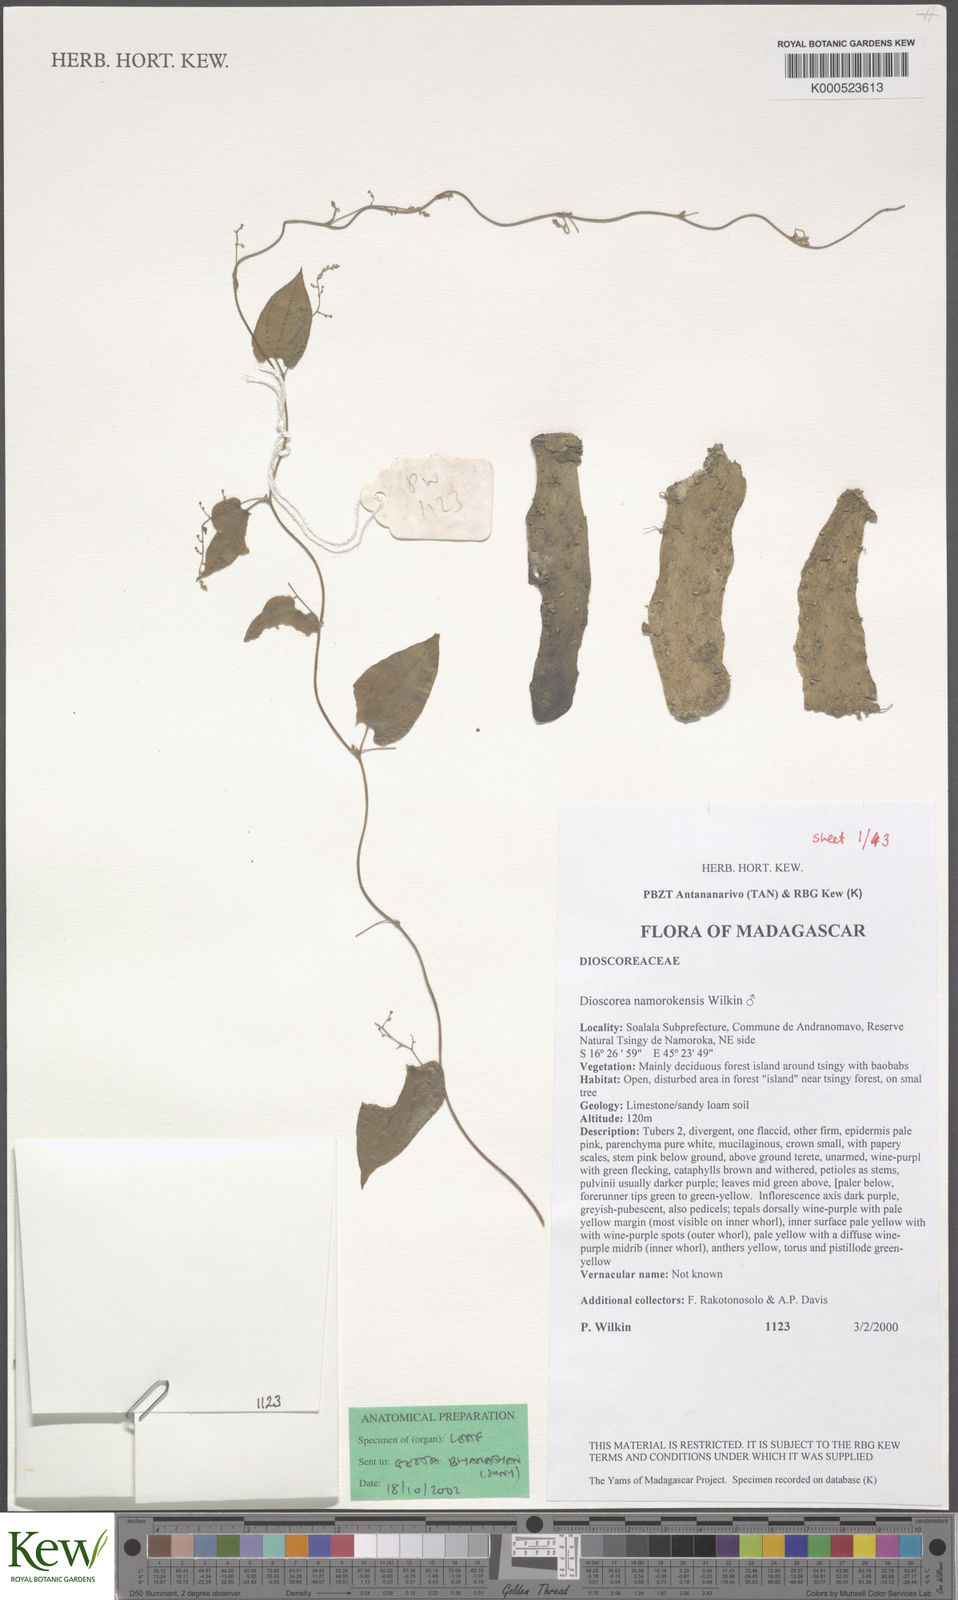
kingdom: Plantae
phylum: Tracheophyta
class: Liliopsida
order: Dioscoreales
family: Dioscoreaceae
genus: Dioscorea
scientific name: Dioscorea namorokensis
